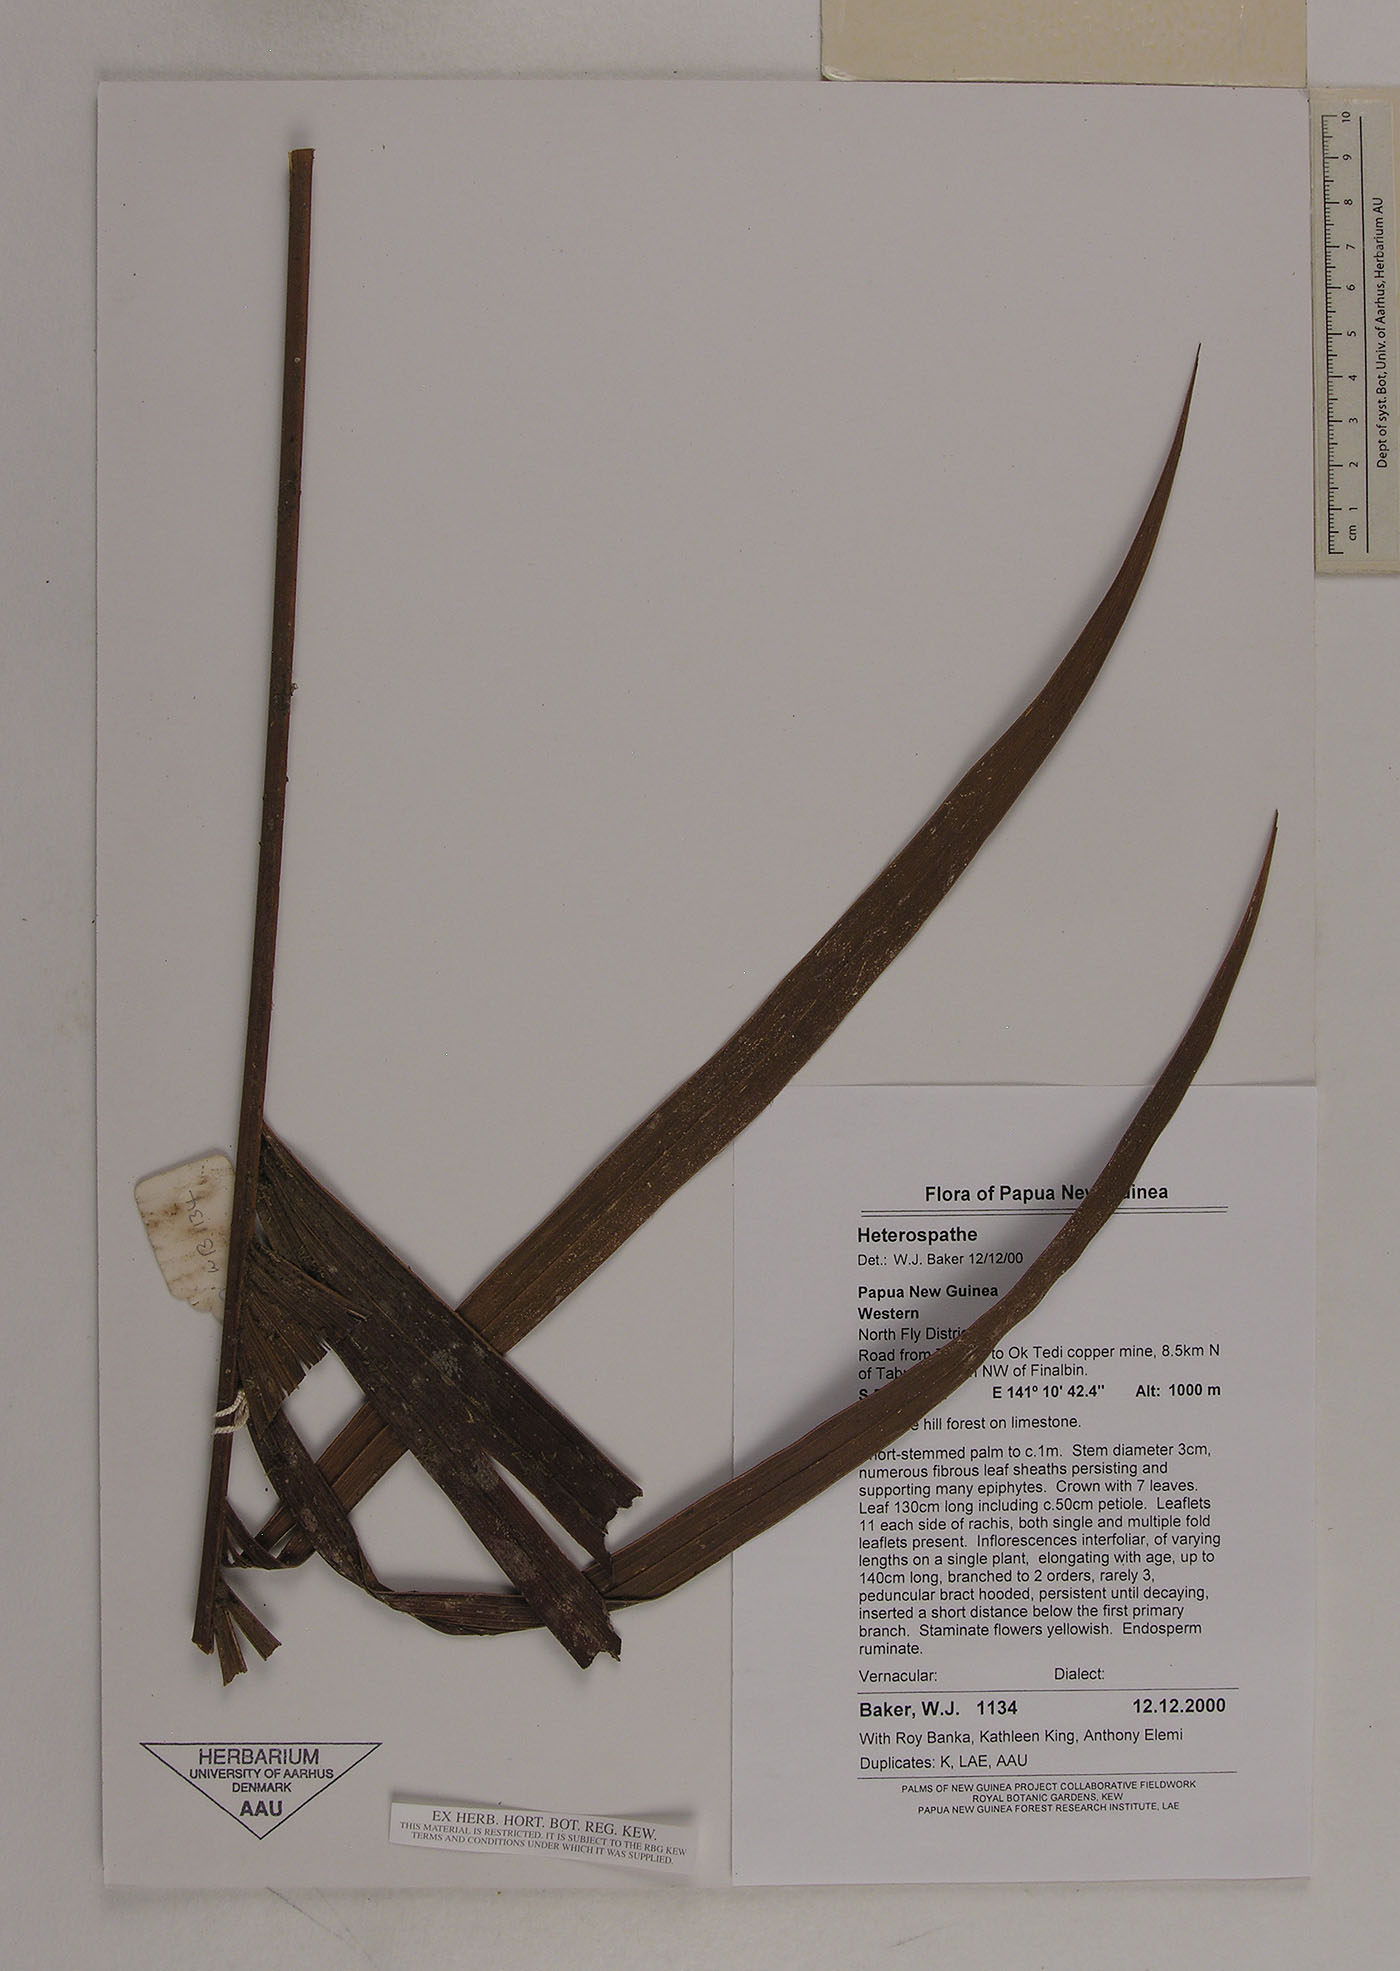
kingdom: Plantae
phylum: Tracheophyta
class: Liliopsida
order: Arecales
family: Arecaceae
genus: Heterospathe
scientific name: Heterospathe
